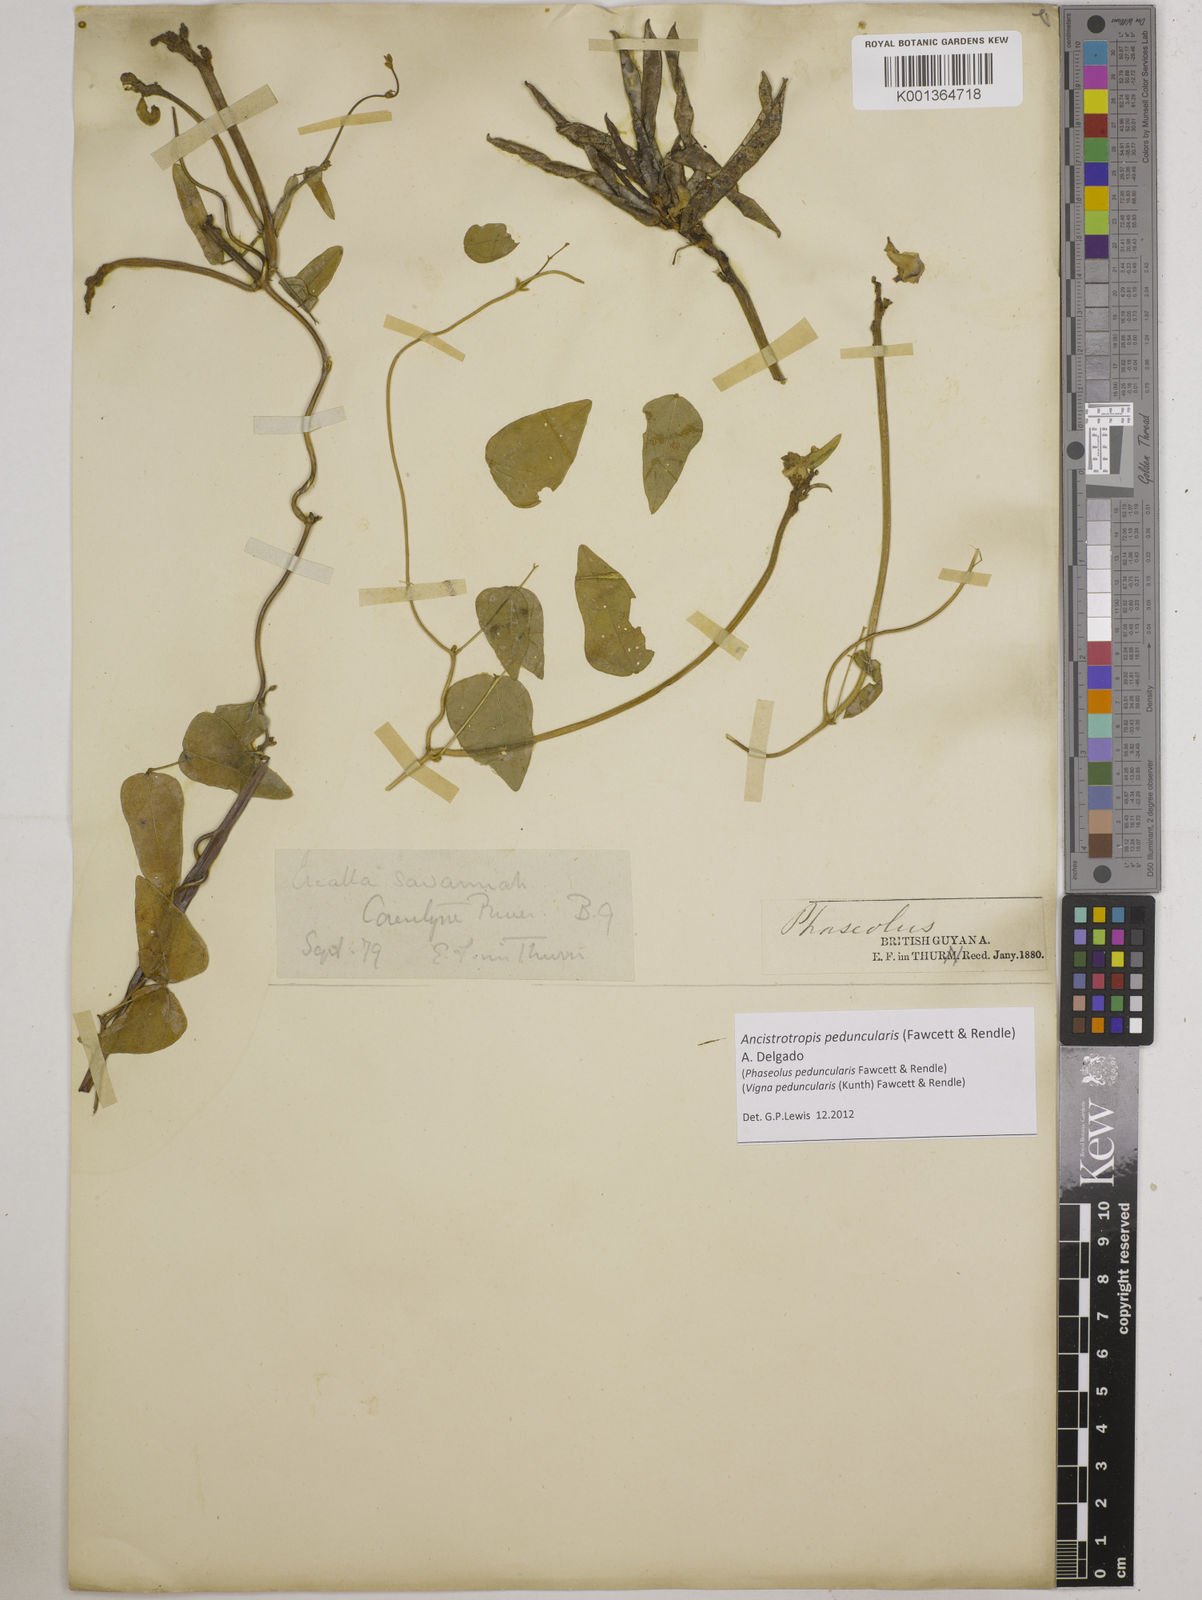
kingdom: Plantae
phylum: Tracheophyta
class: Magnoliopsida
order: Fabales
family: Fabaceae
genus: Ancistrotropis
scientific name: Ancistrotropis peduncularis
